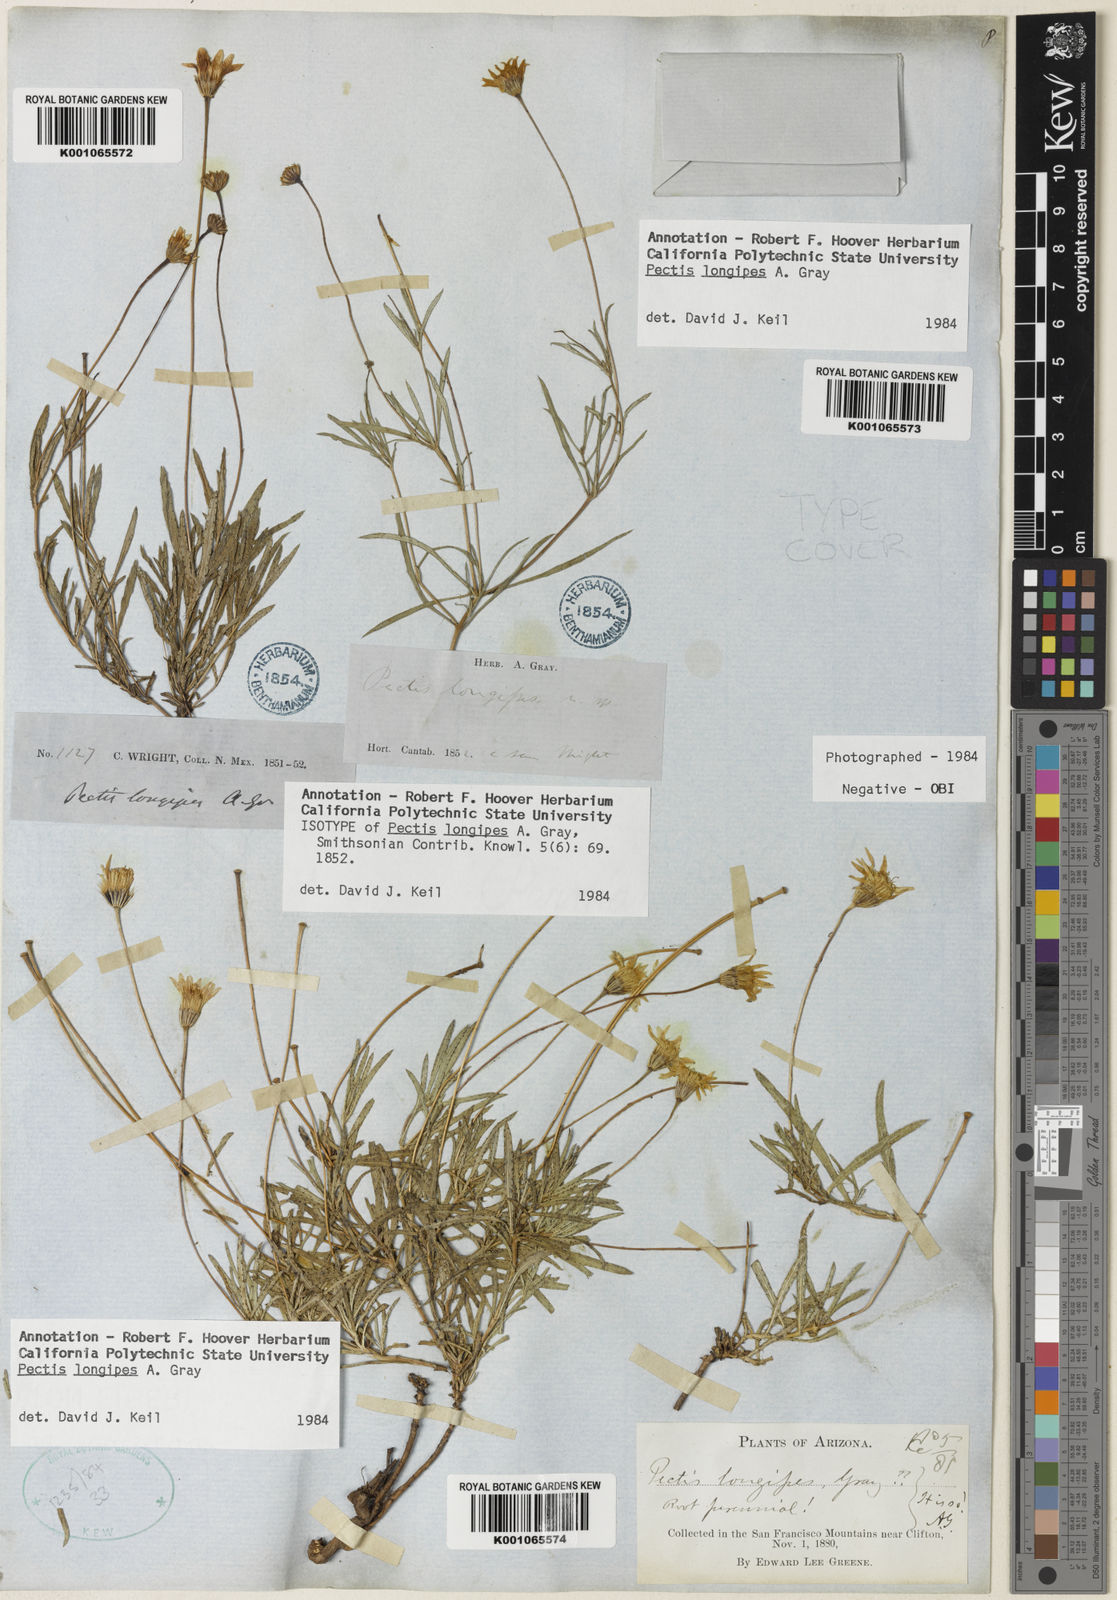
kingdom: Plantae
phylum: Tracheophyta
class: Magnoliopsida
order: Asterales
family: Asteraceae
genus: Pectis
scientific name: Pectis longipes
